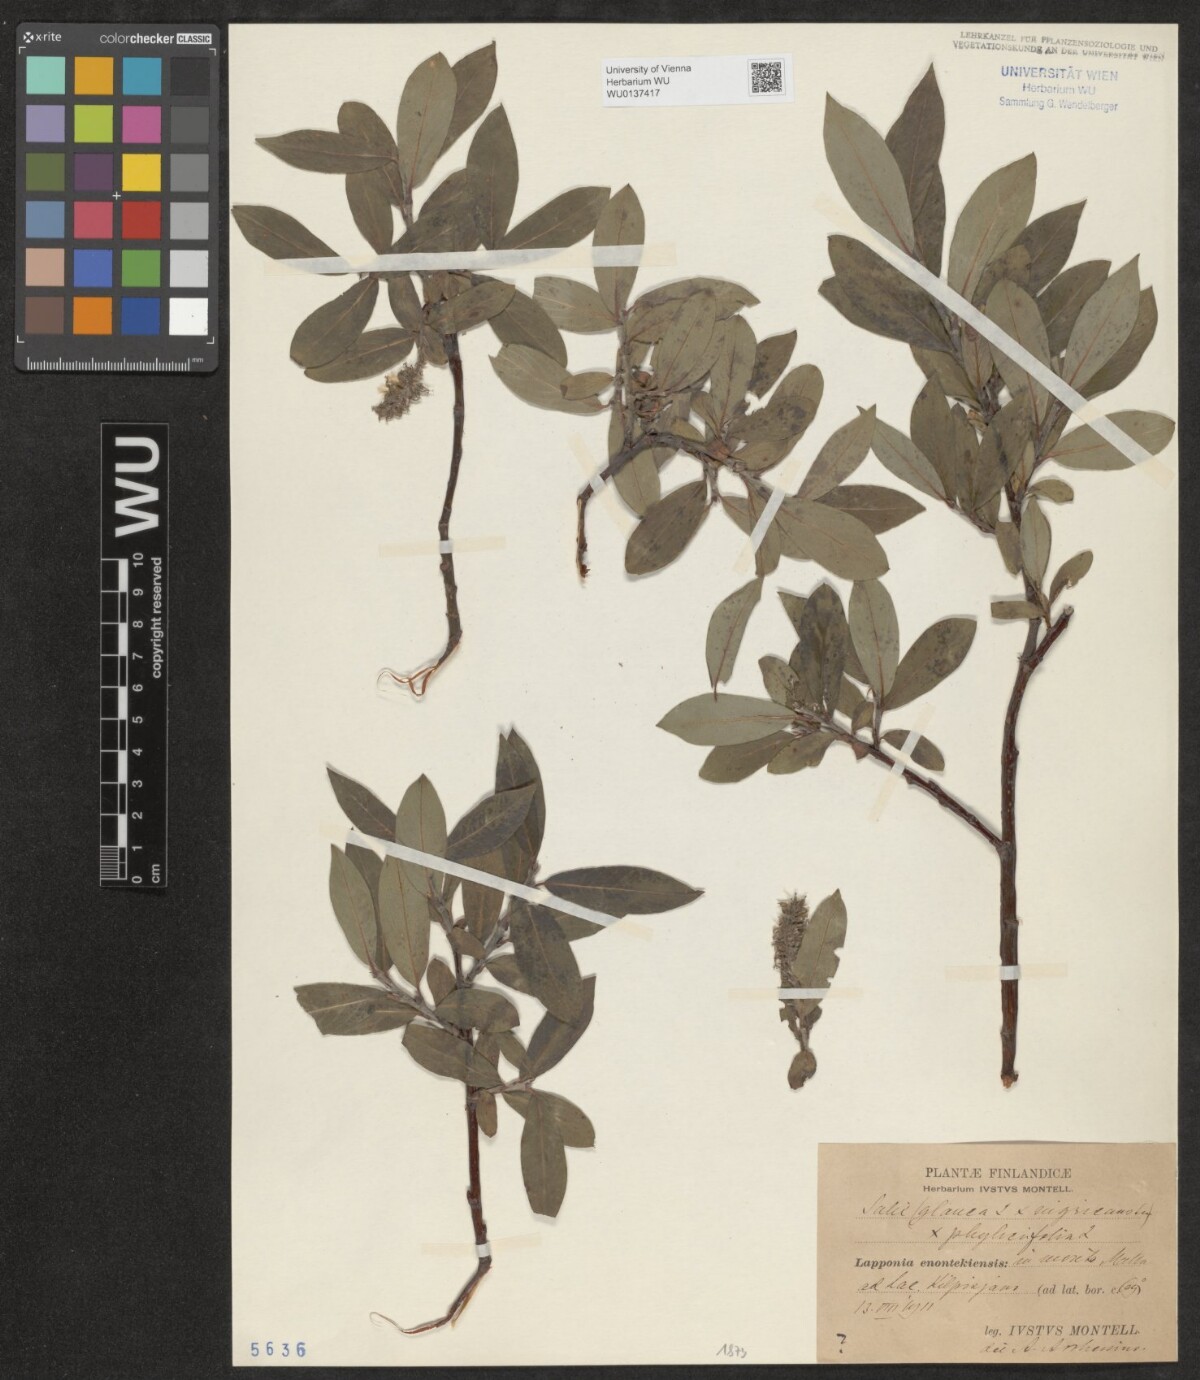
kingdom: Plantae
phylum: Tracheophyta
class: Magnoliopsida
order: Malpighiales
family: Salicaceae
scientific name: Salicaceae
